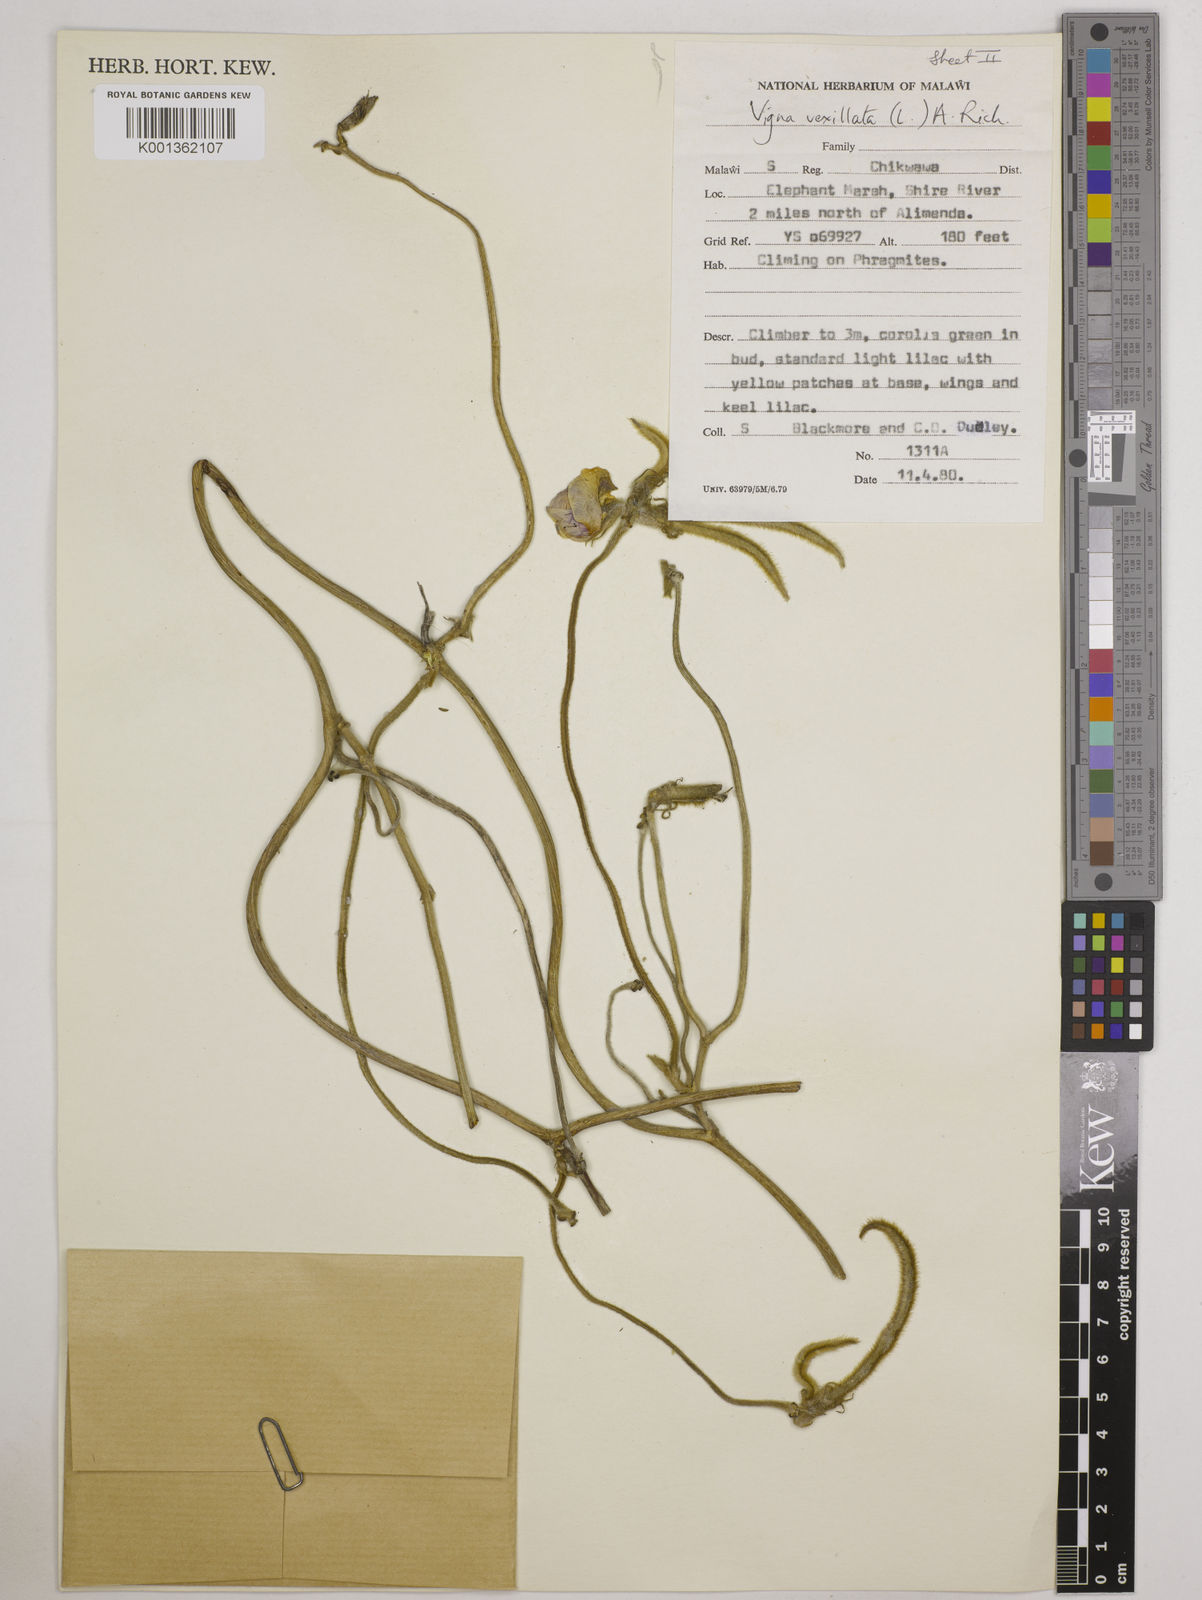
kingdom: Plantae
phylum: Tracheophyta
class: Magnoliopsida
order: Fabales
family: Fabaceae
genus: Vigna
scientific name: Vigna vexillata
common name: Zombi pea
